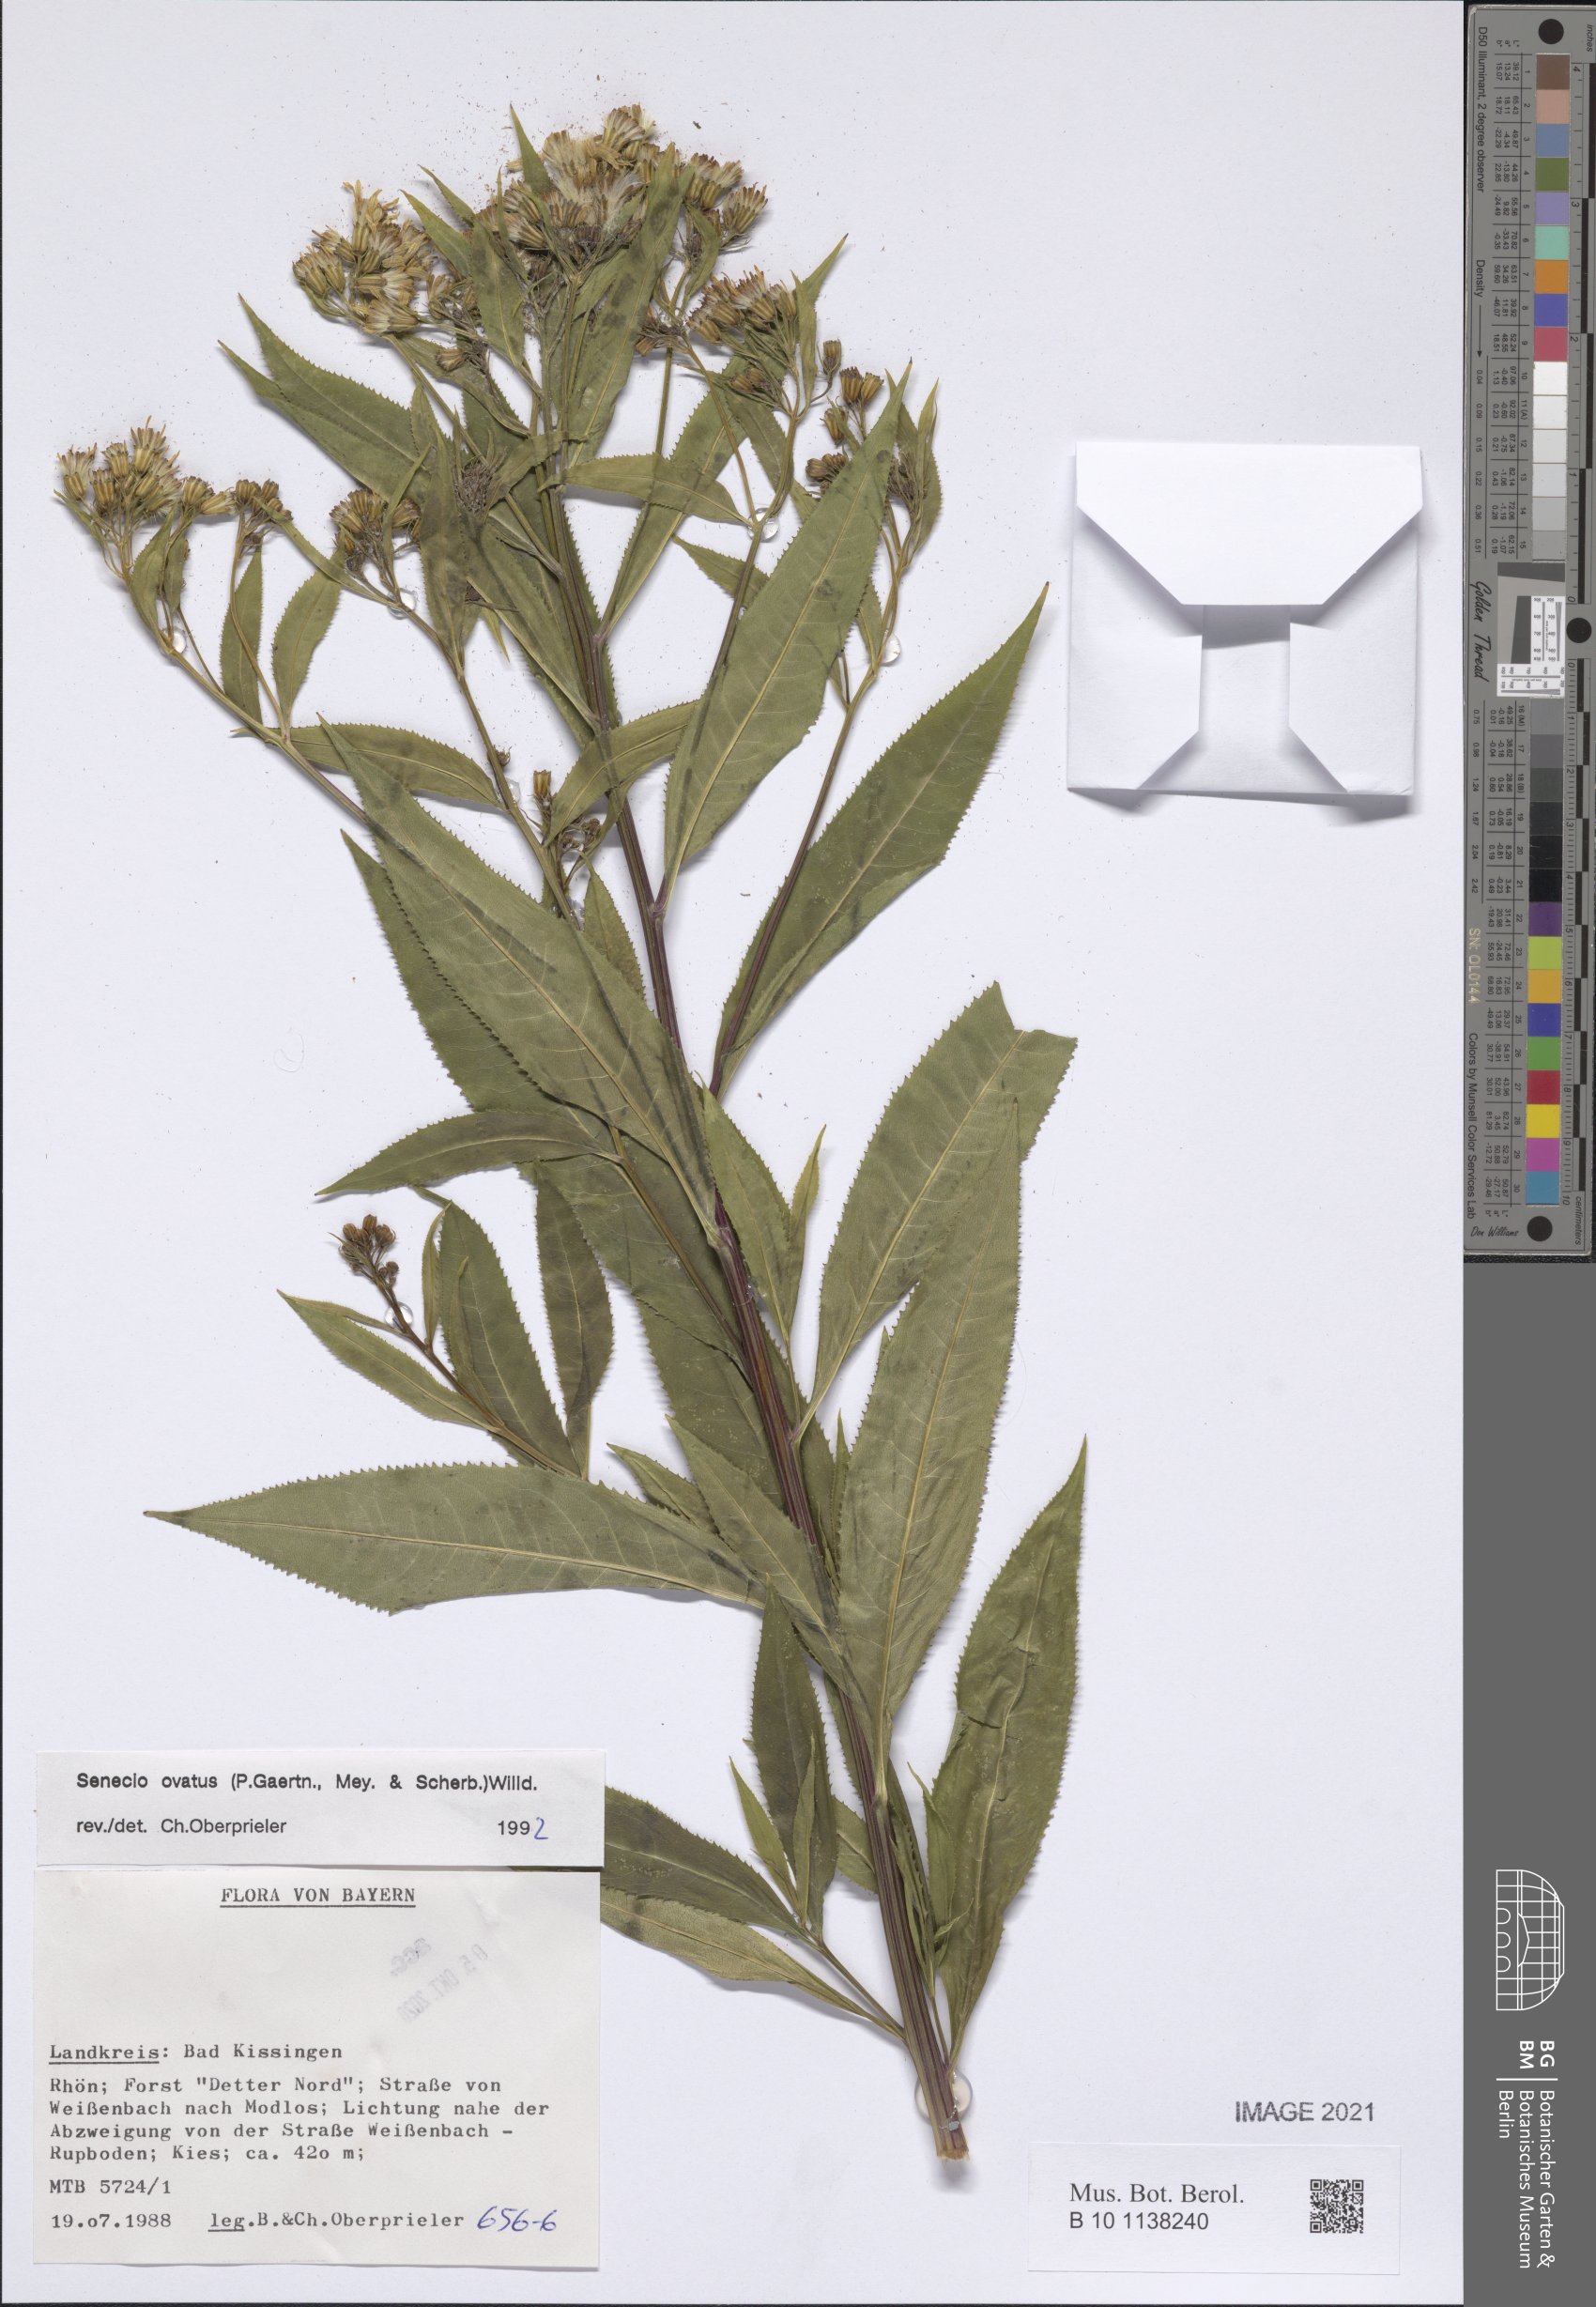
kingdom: Plantae
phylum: Tracheophyta
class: Magnoliopsida
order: Asterales
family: Asteraceae
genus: Senecio
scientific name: Senecio ovatus
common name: Wood ragwort
